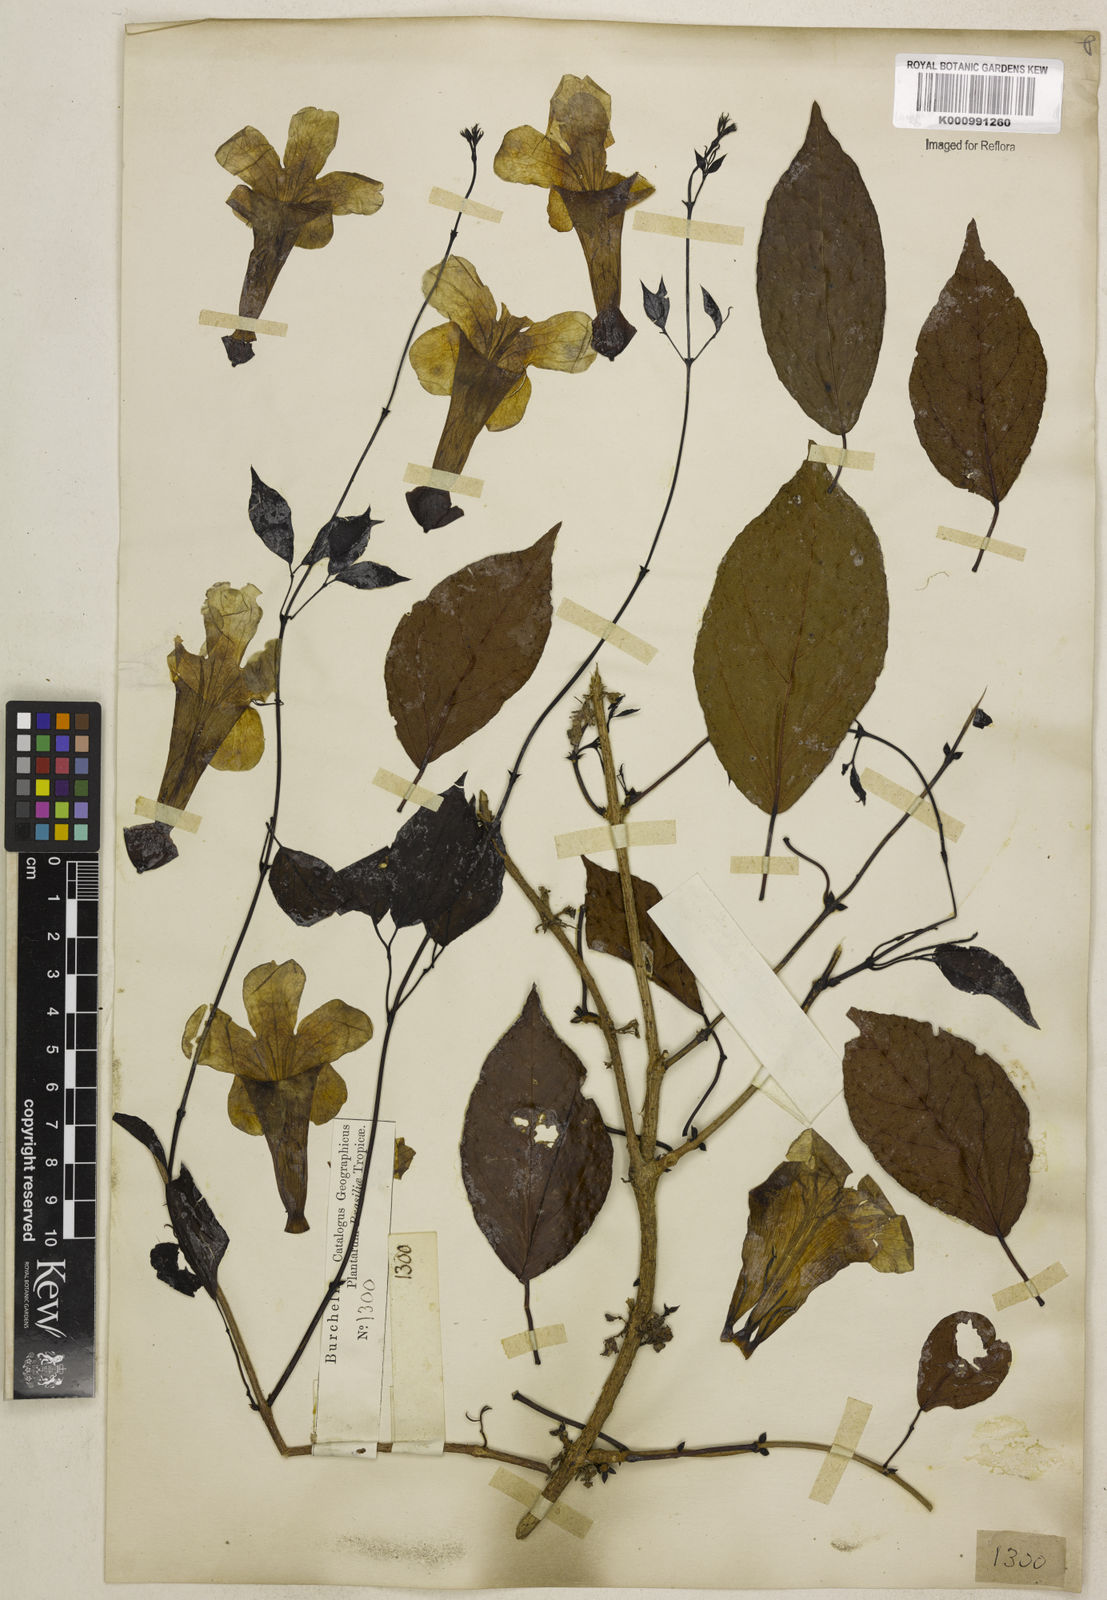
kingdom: Plantae
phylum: Tracheophyta
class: Magnoliopsida
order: Lamiales
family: Bignoniaceae
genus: Dolichandra
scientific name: Dolichandra unguis-cati
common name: Catclaw vine
